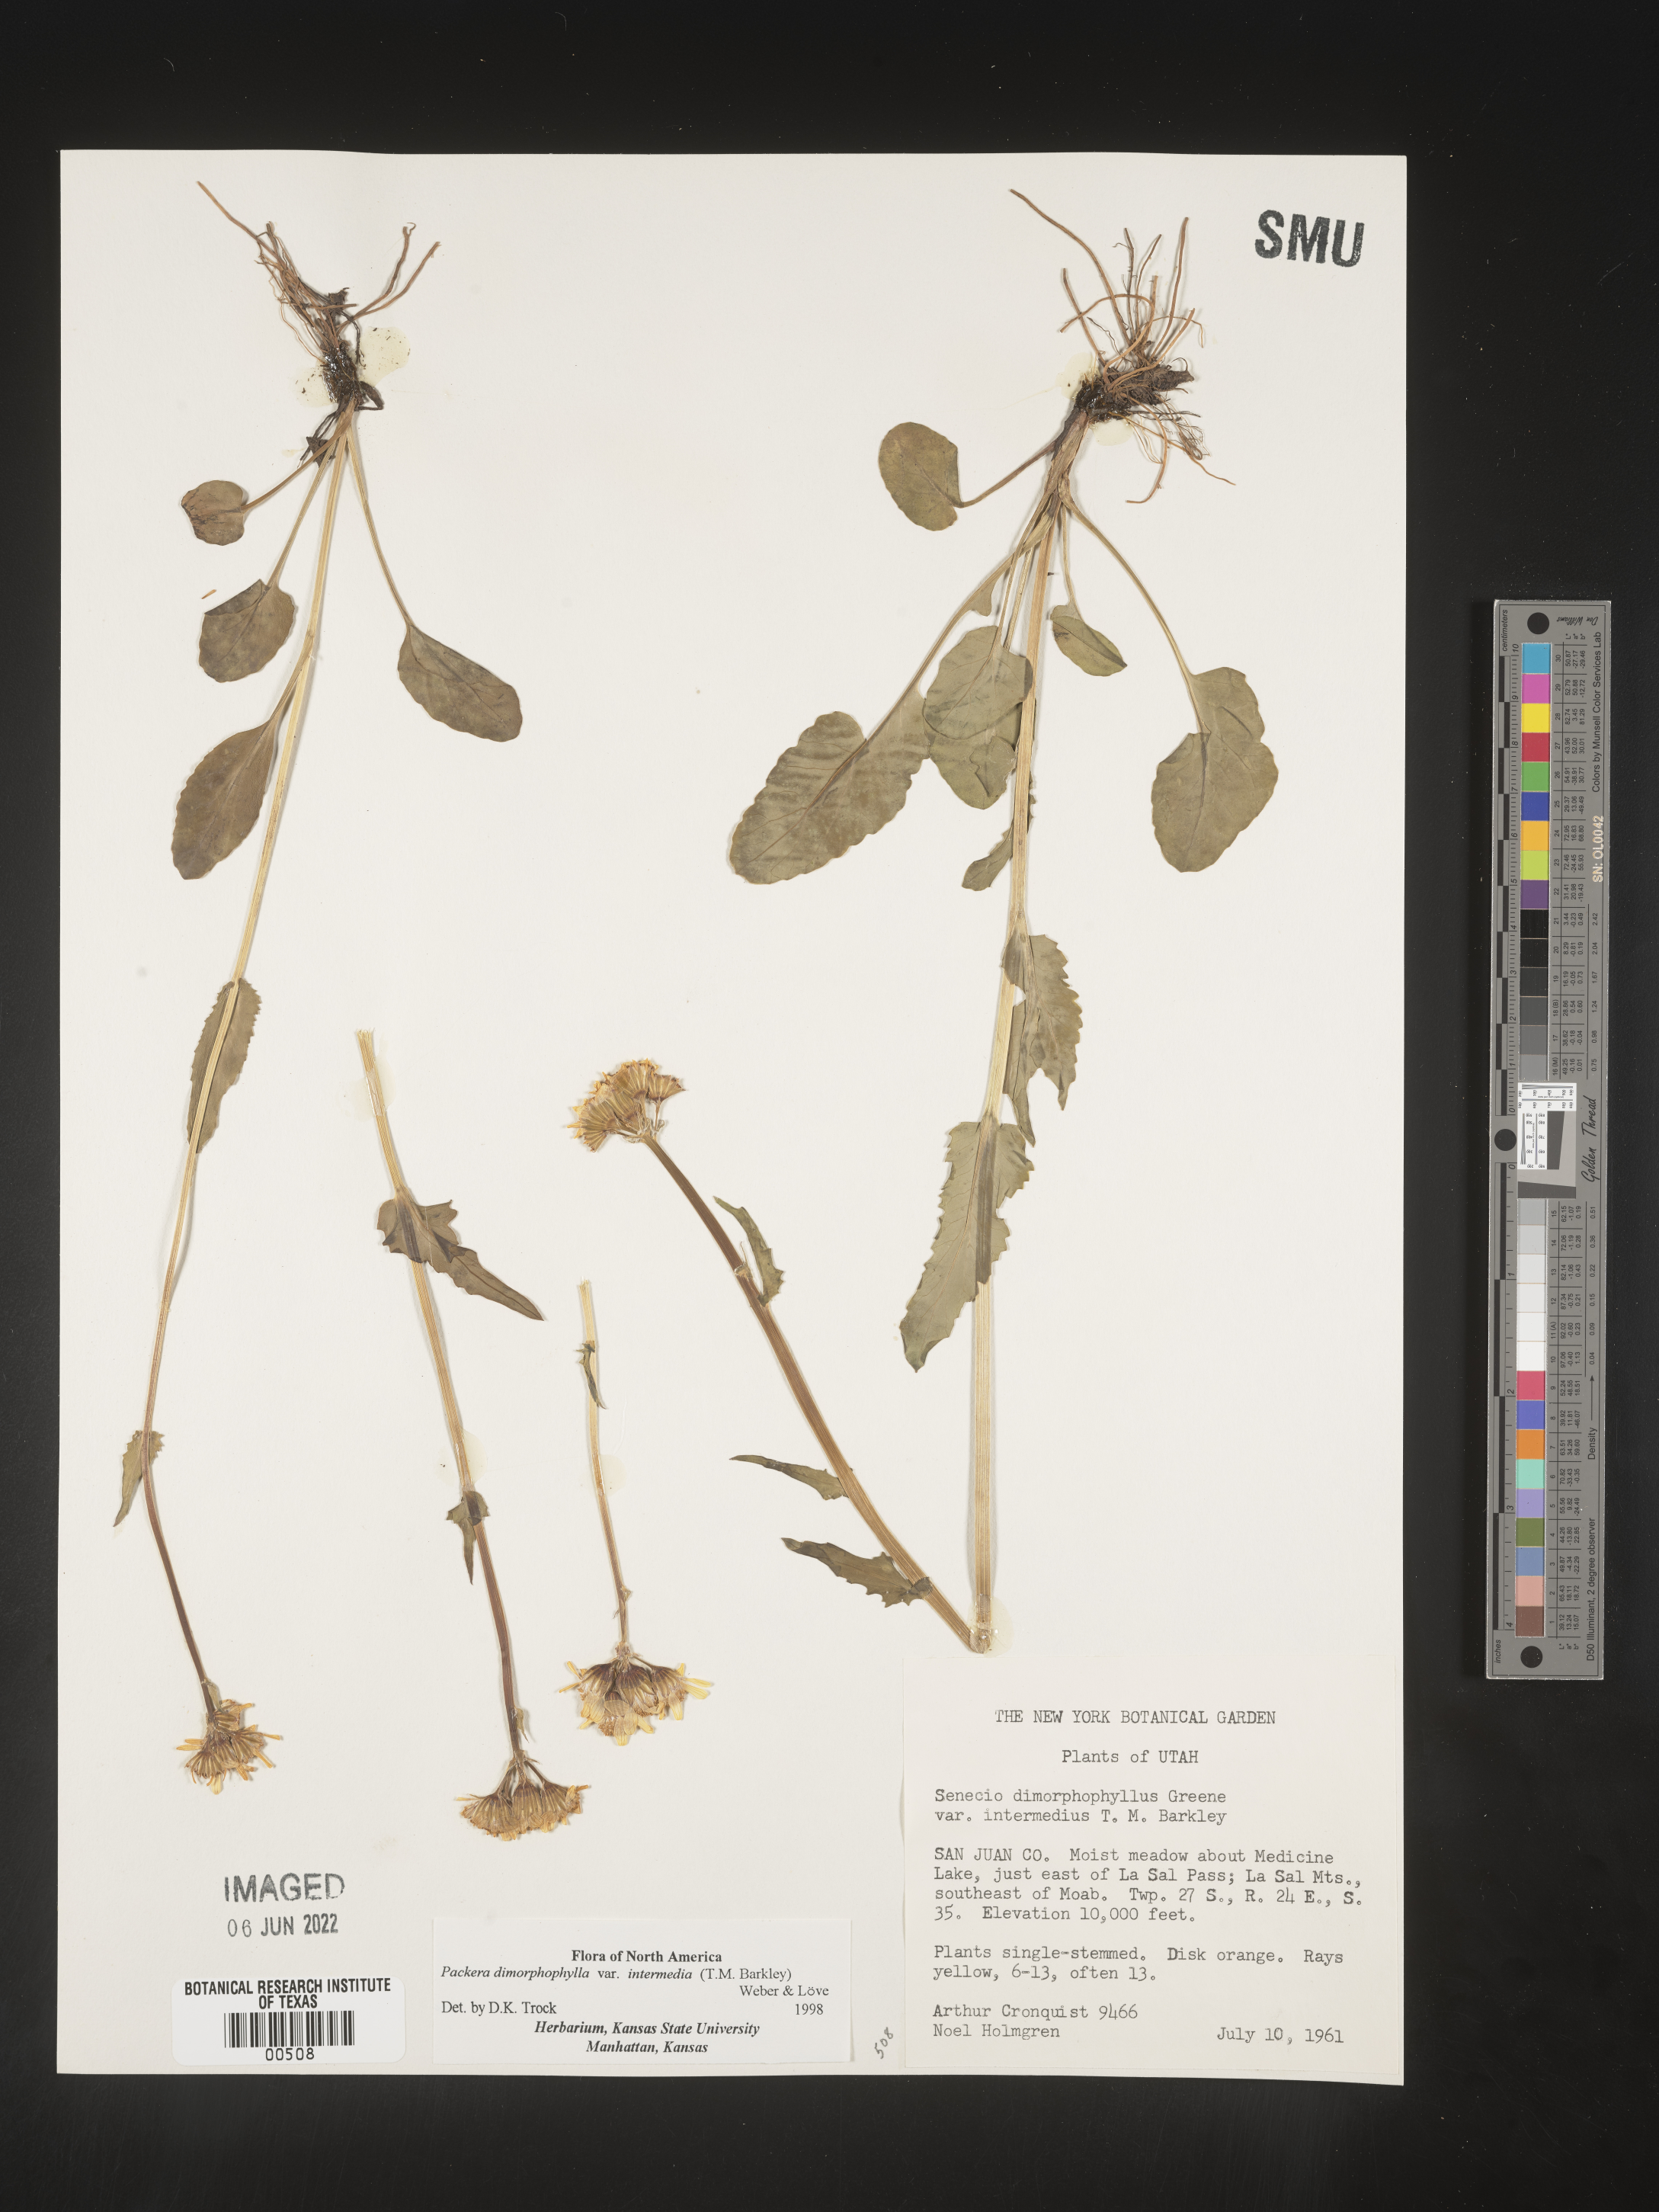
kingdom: Plantae
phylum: Tracheophyta
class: Magnoliopsida
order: Asterales
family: Asteraceae
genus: Packera
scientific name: Packera dimorphophylla
